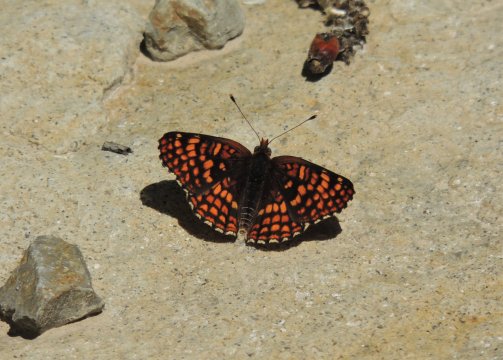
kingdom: Animalia
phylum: Arthropoda
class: Insecta
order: Lepidoptera
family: Nymphalidae
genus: Chlosyne
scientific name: Chlosyne palla
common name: Northern Checkerspot
